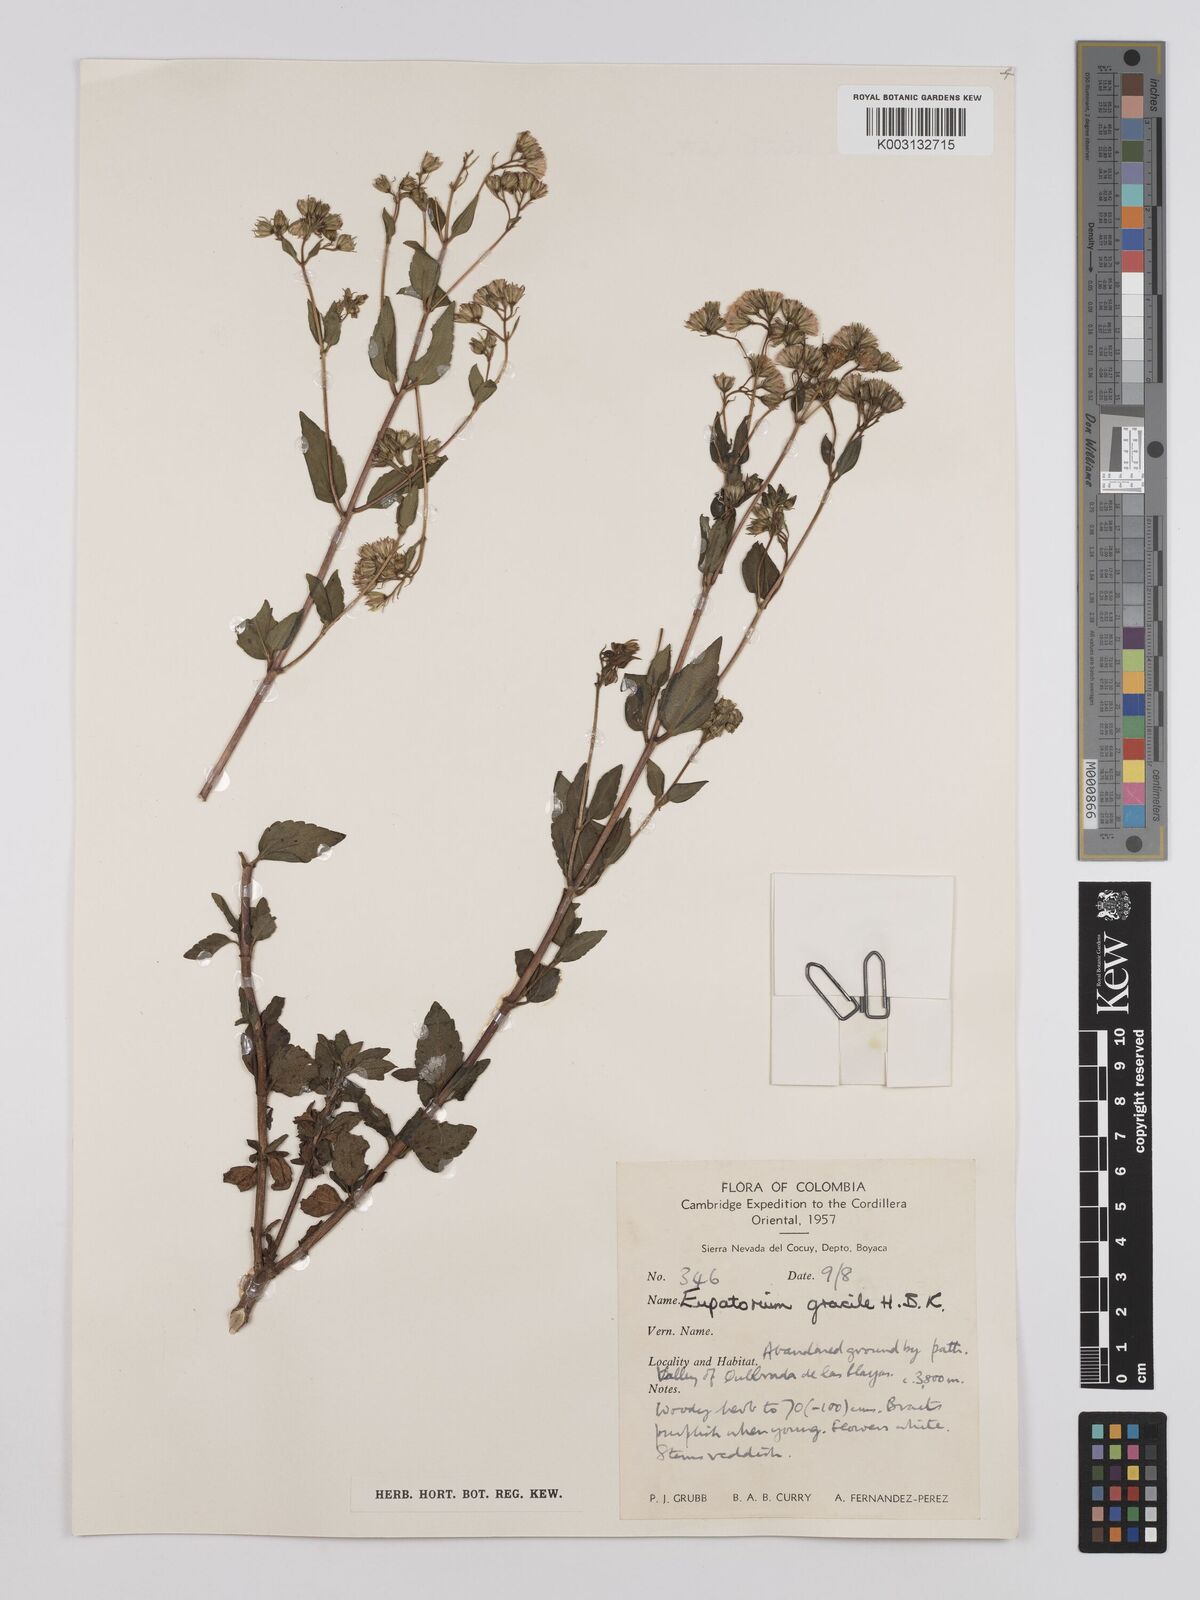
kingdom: Plantae
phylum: Tracheophyta
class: Magnoliopsida
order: Asterales
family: Asteraceae
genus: Ageratina
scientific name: Ageratina gracilis
